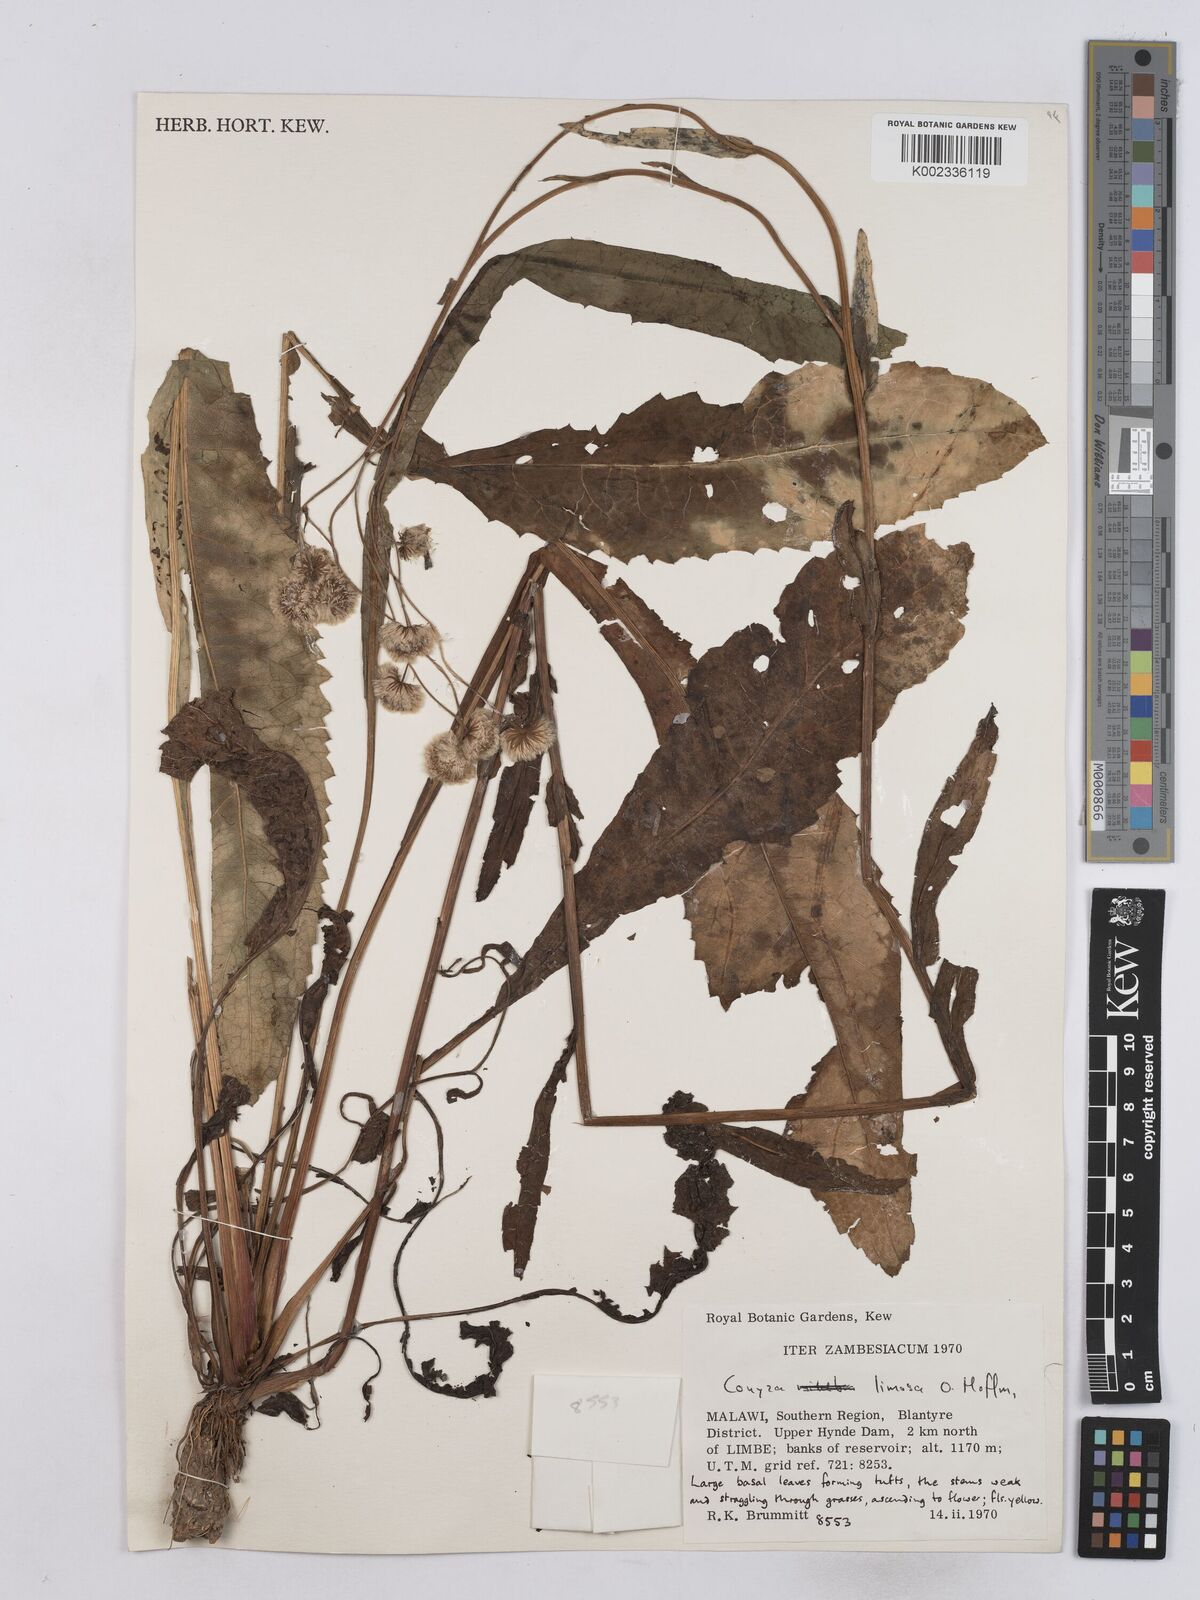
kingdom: Plantae
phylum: Tracheophyta
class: Magnoliopsida
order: Asterales
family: Asteraceae
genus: Conyza
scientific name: Conyza limosa
